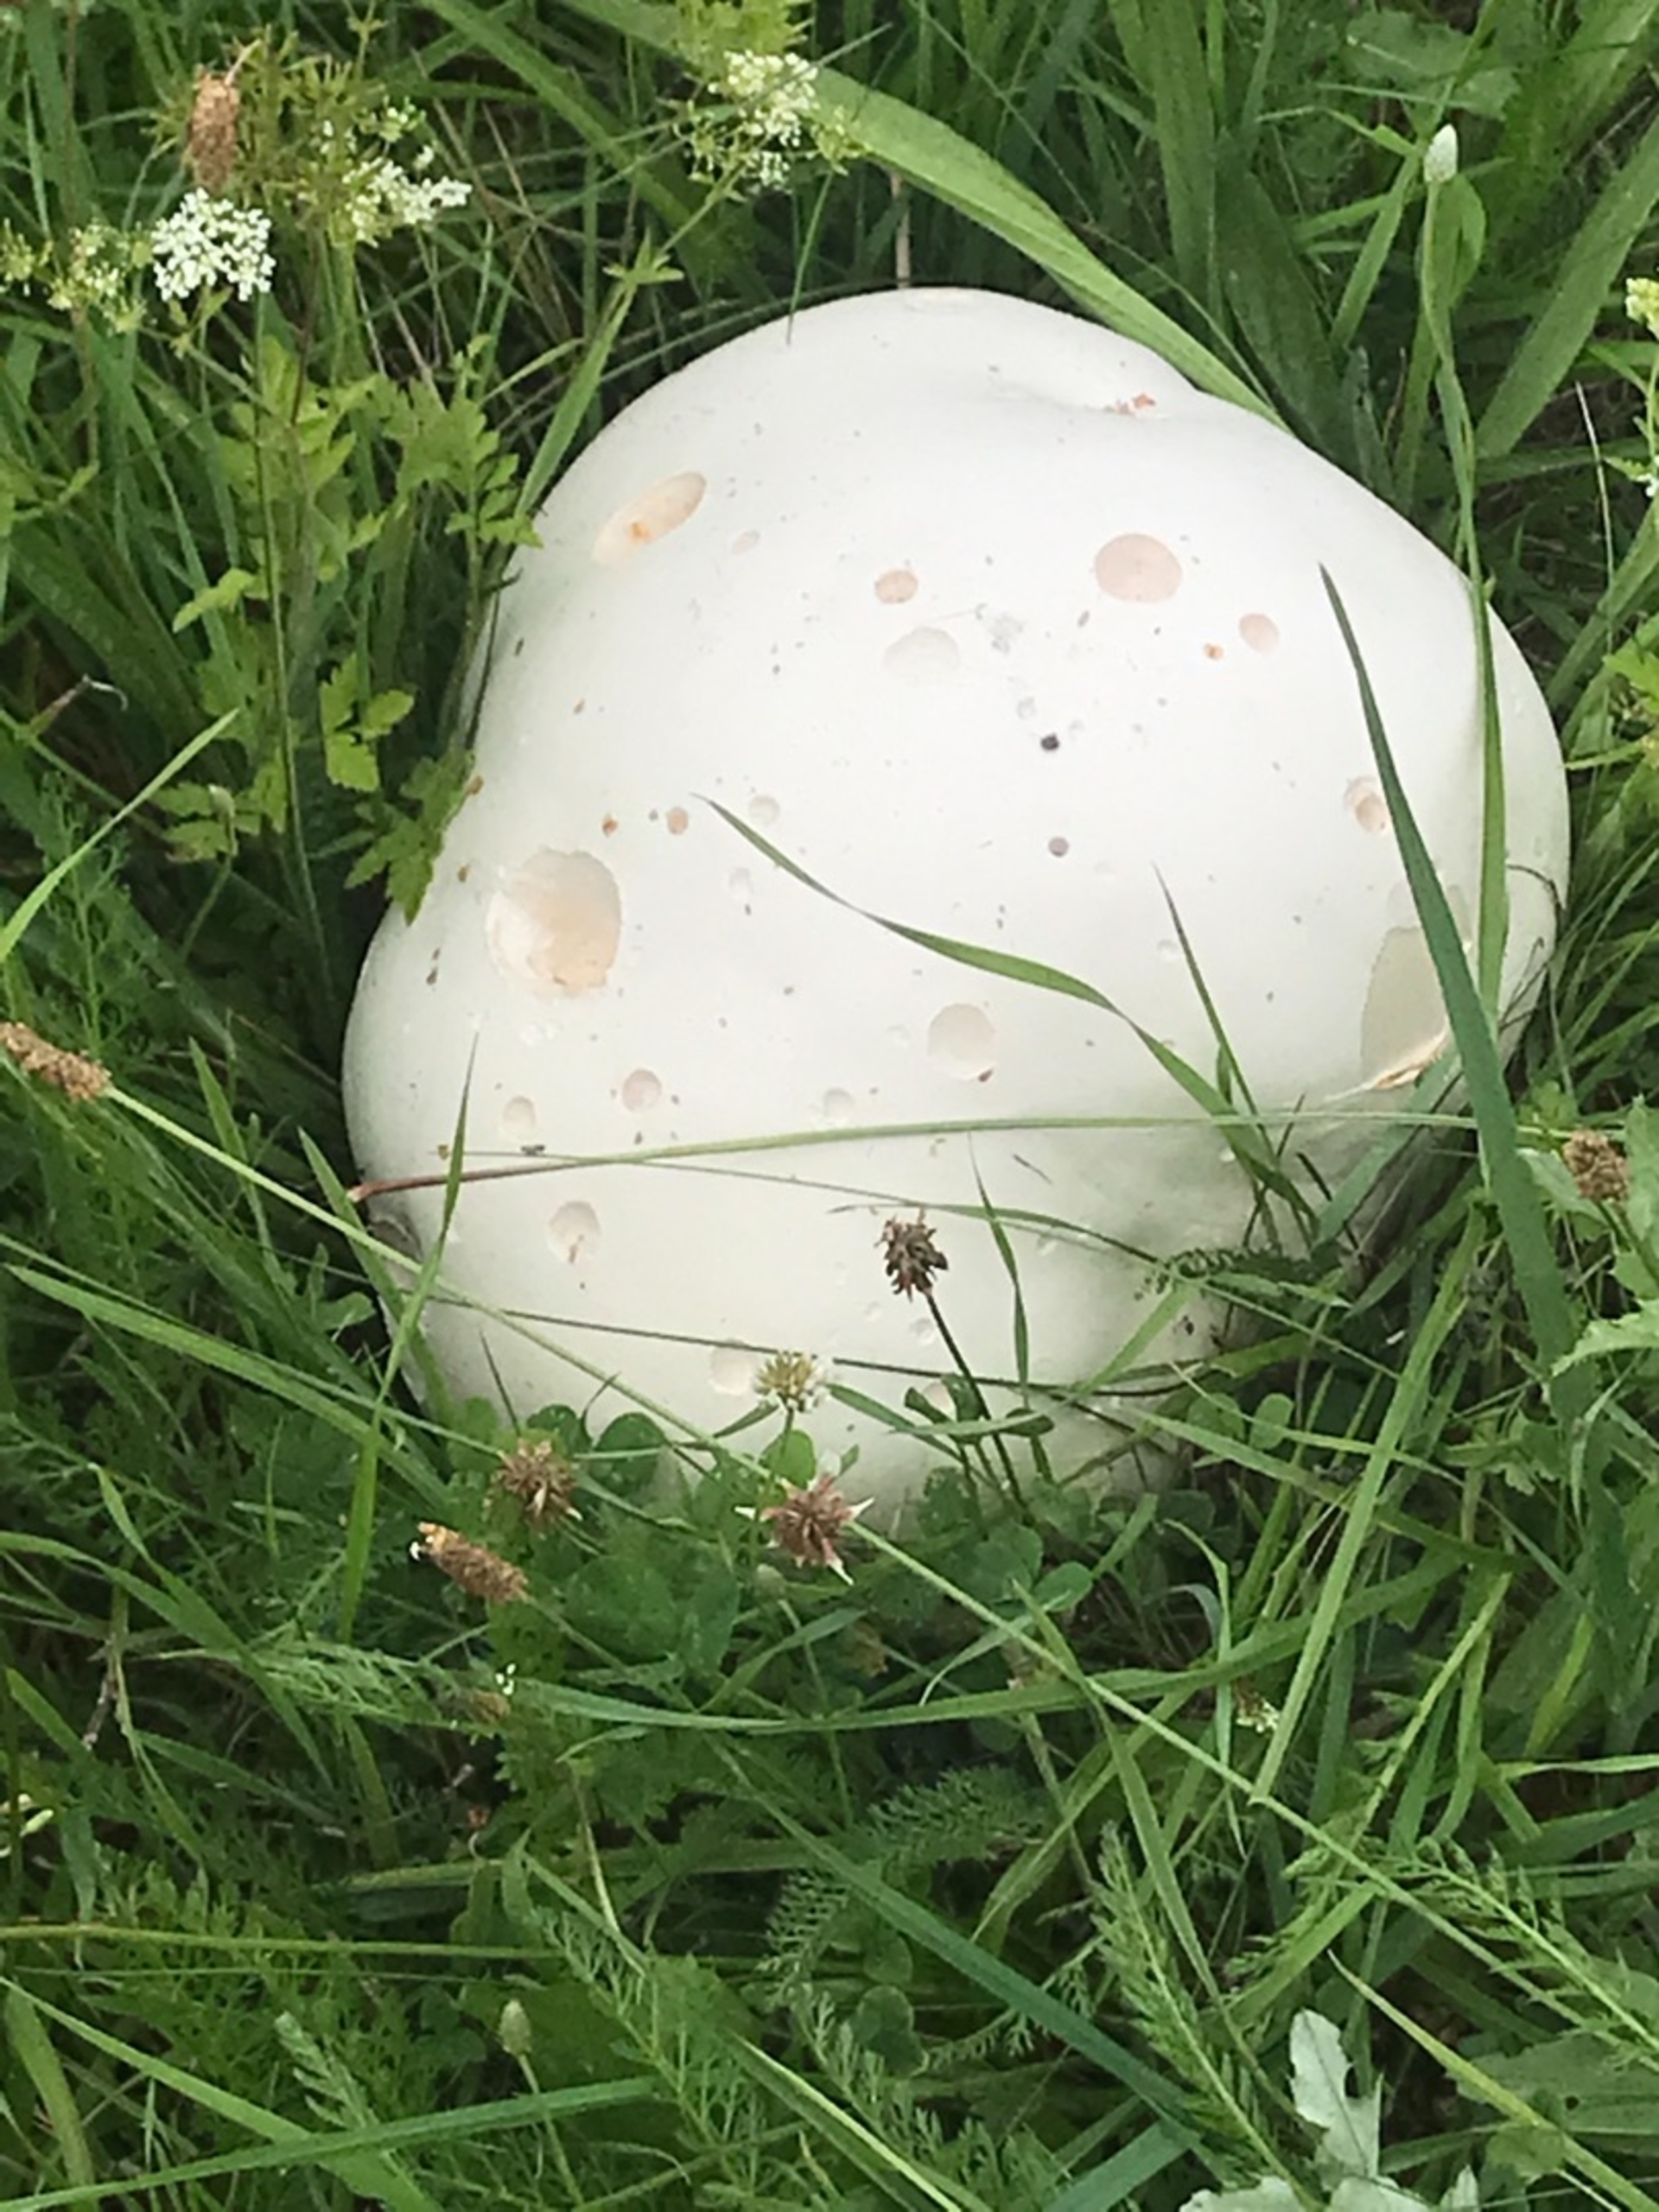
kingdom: Fungi
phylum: Basidiomycota
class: Agaricomycetes
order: Agaricales
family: Lycoperdaceae
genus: Calvatia
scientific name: Calvatia gigantea
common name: Kæmpestøvbold
